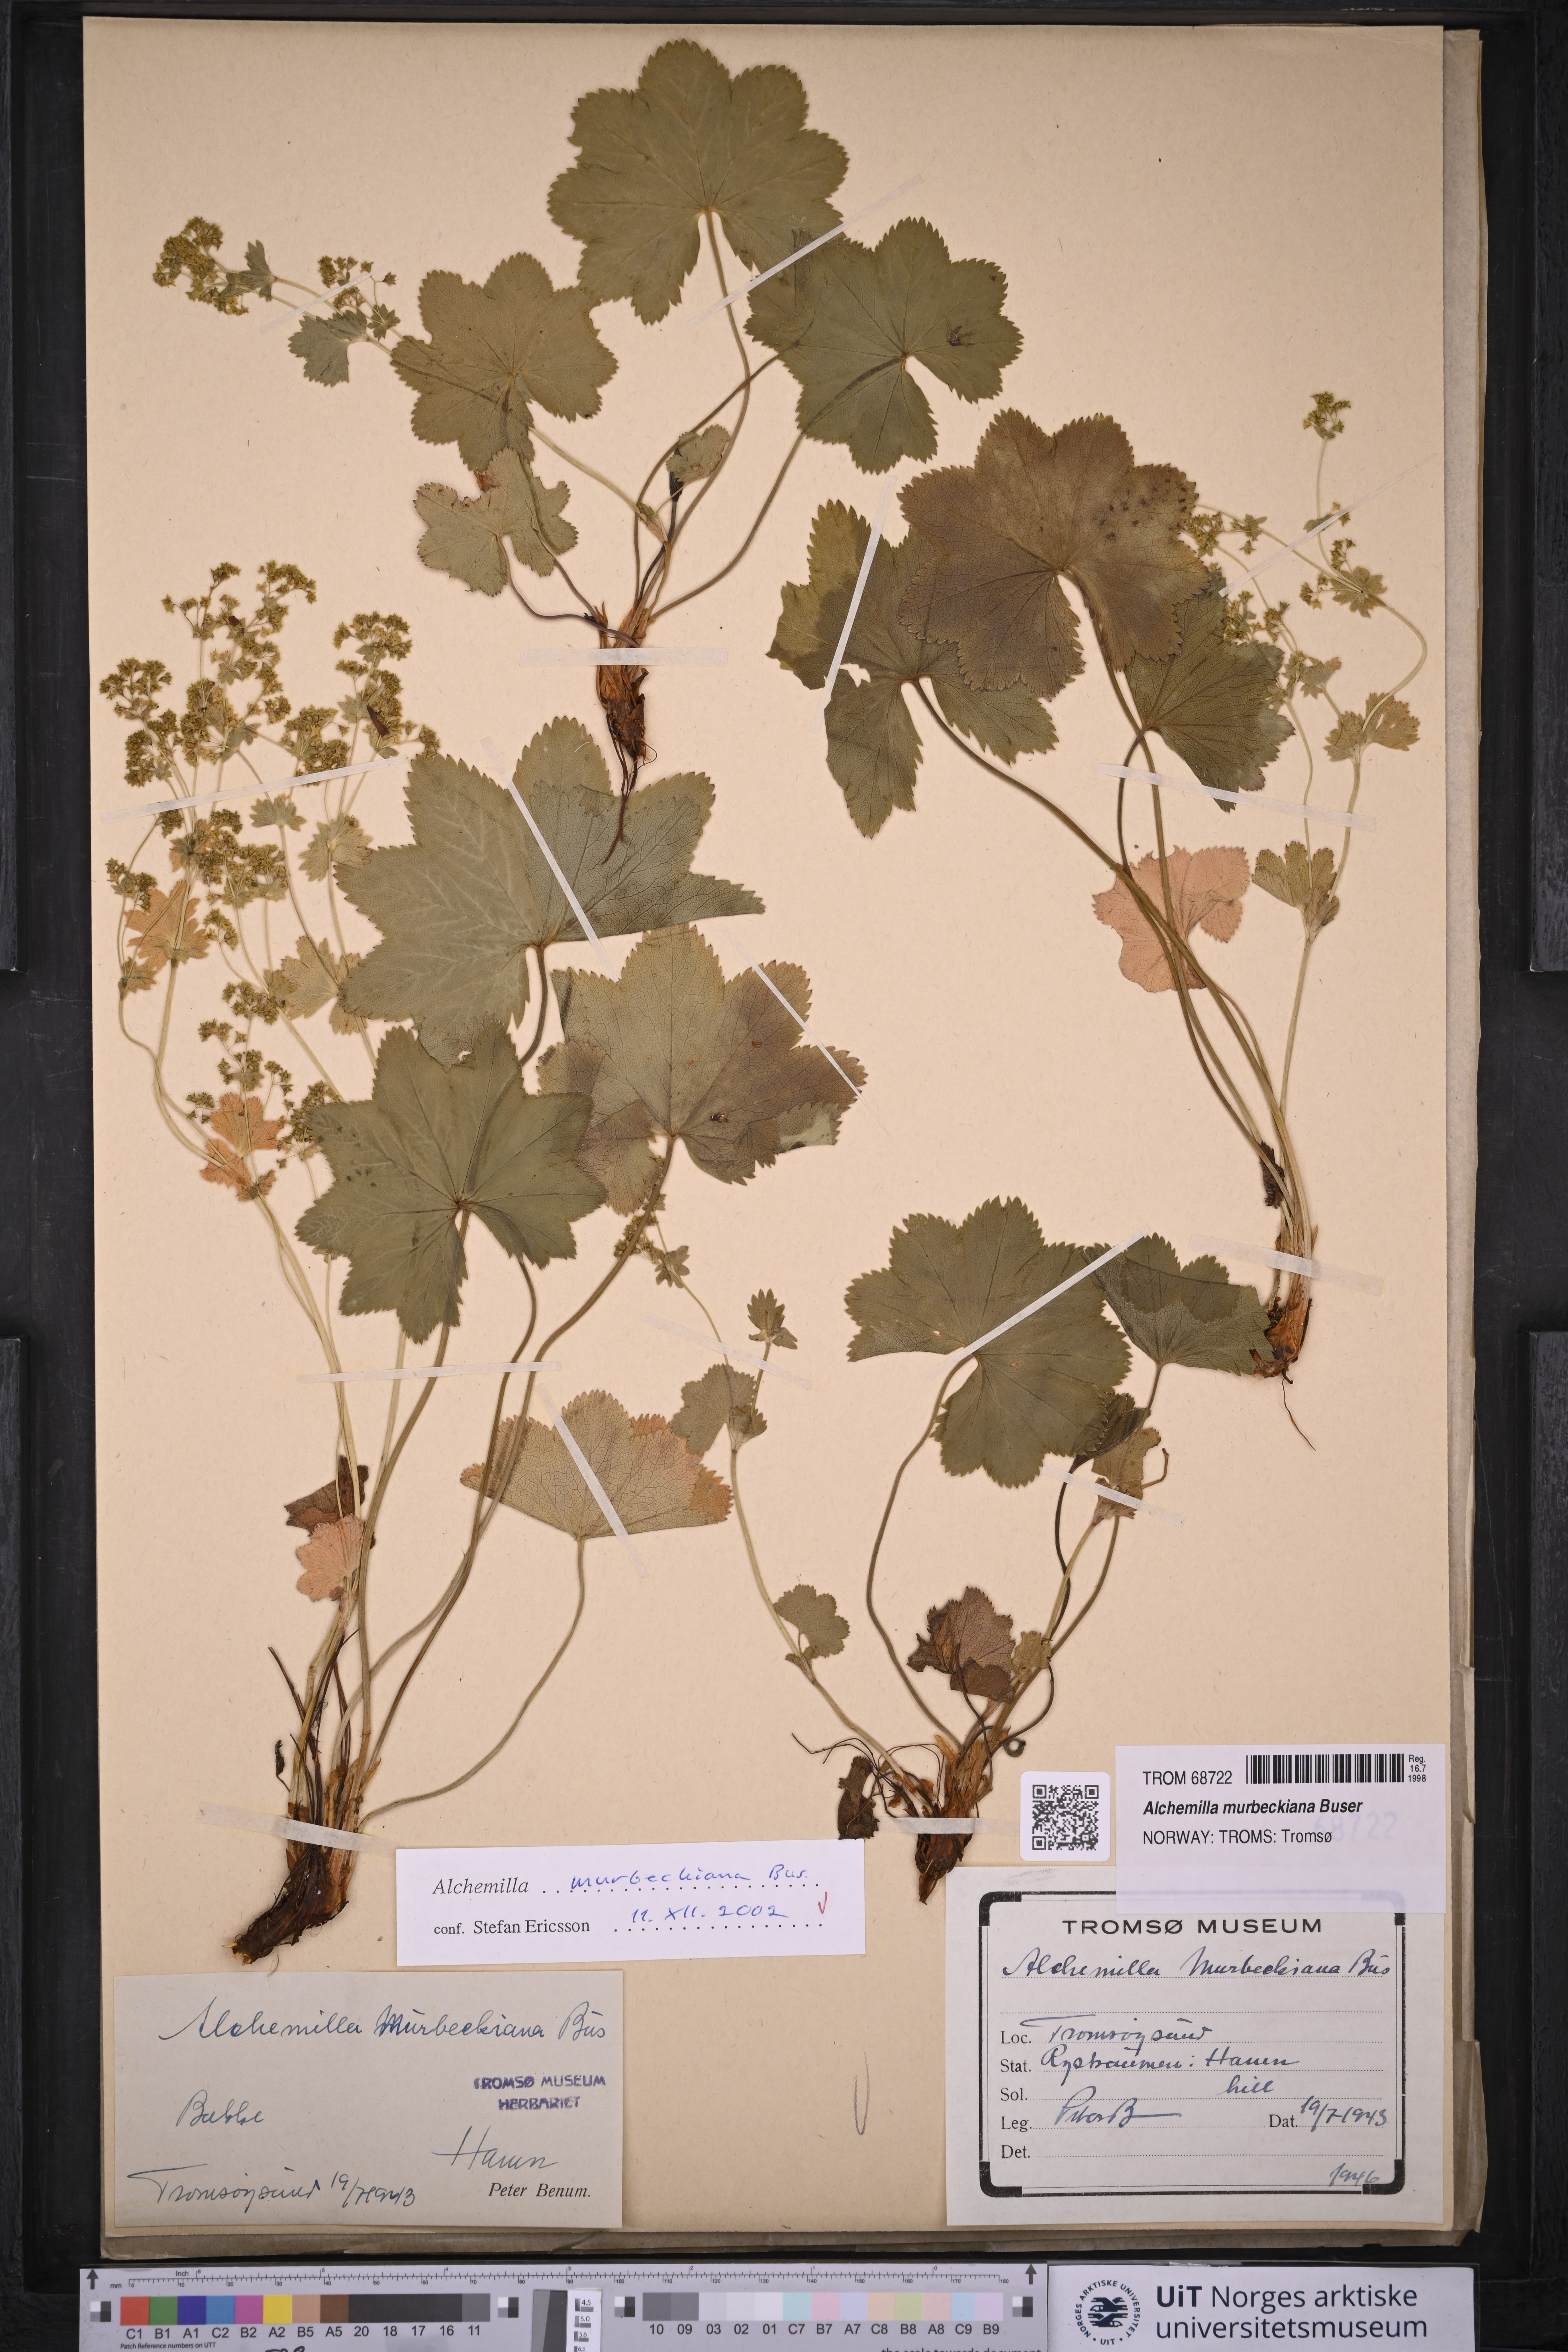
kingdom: Plantae
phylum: Tracheophyta
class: Magnoliopsida
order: Rosales
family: Rosaceae
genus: Alchemilla
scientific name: Alchemilla murbeckiana
